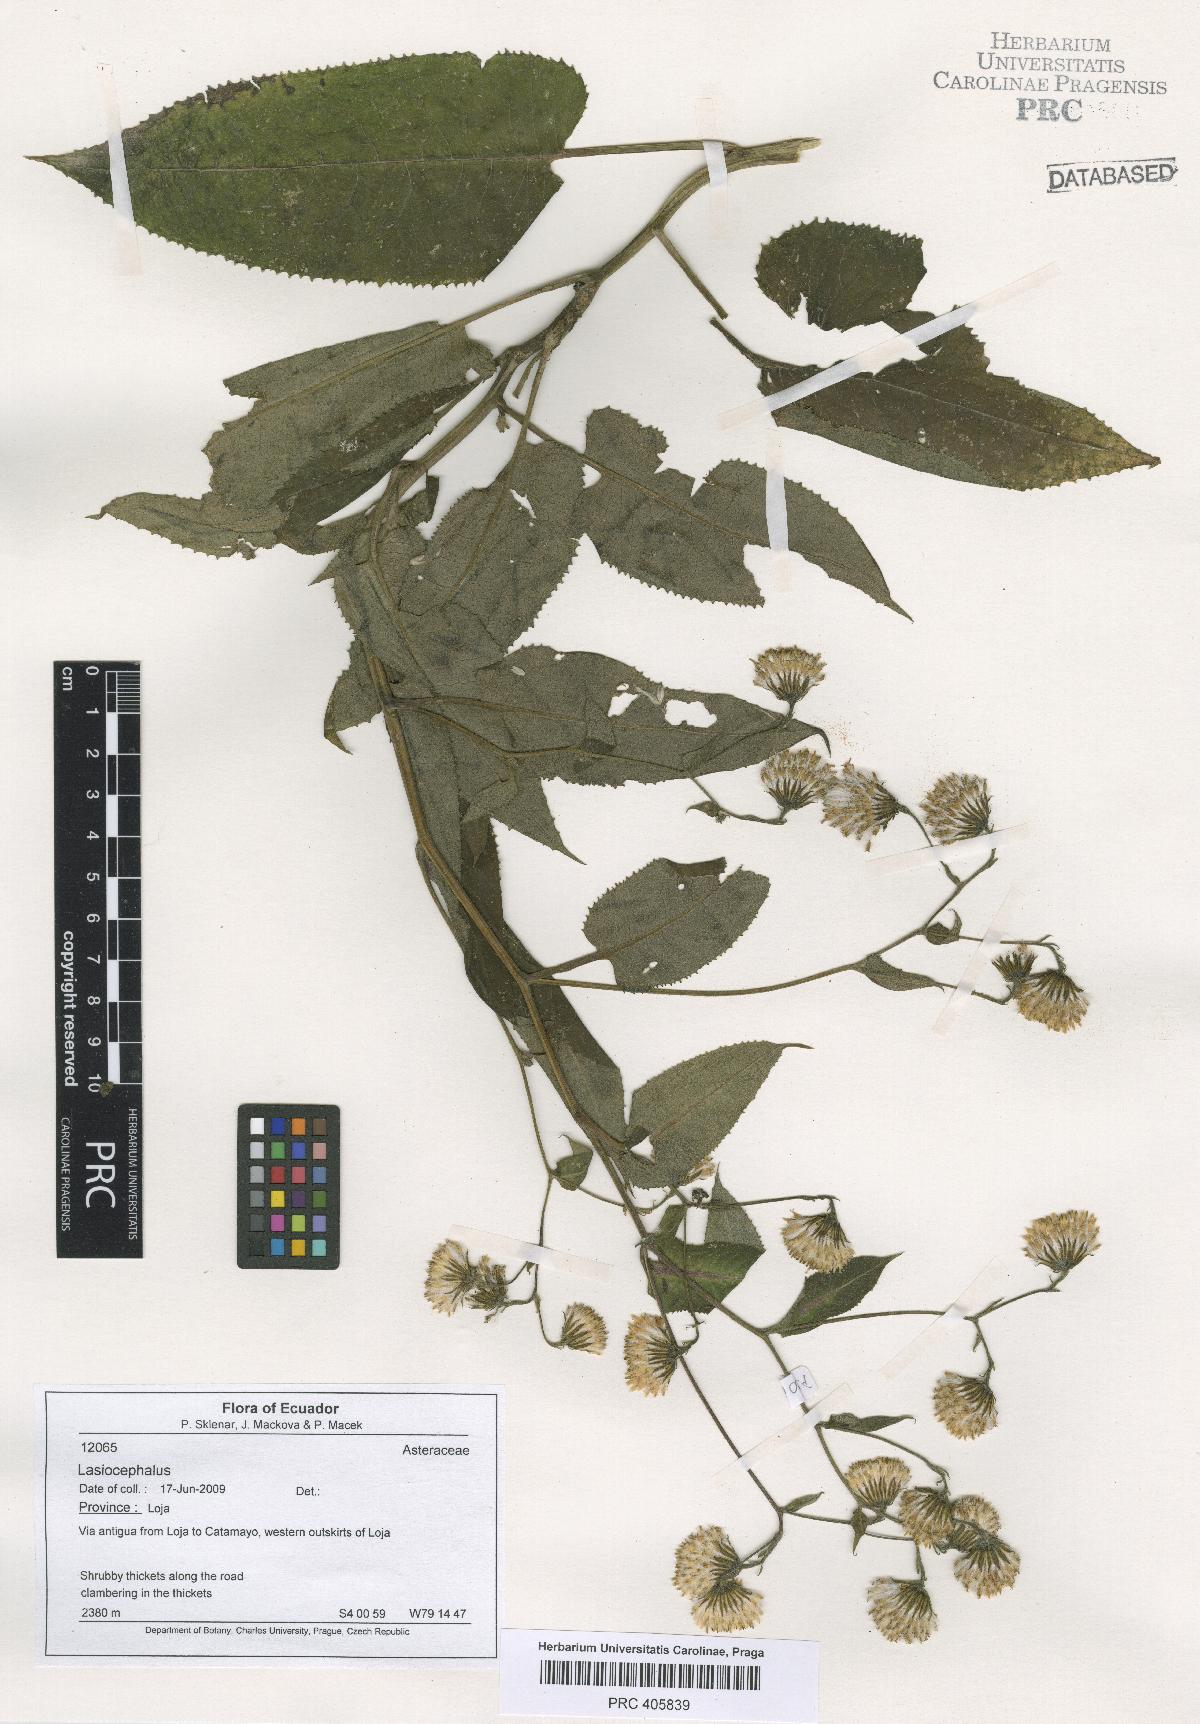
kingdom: Plantae
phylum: Tracheophyta
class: Magnoliopsida
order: Asterales
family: Asteraceae
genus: Lasiocephalus
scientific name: Lasiocephalus
